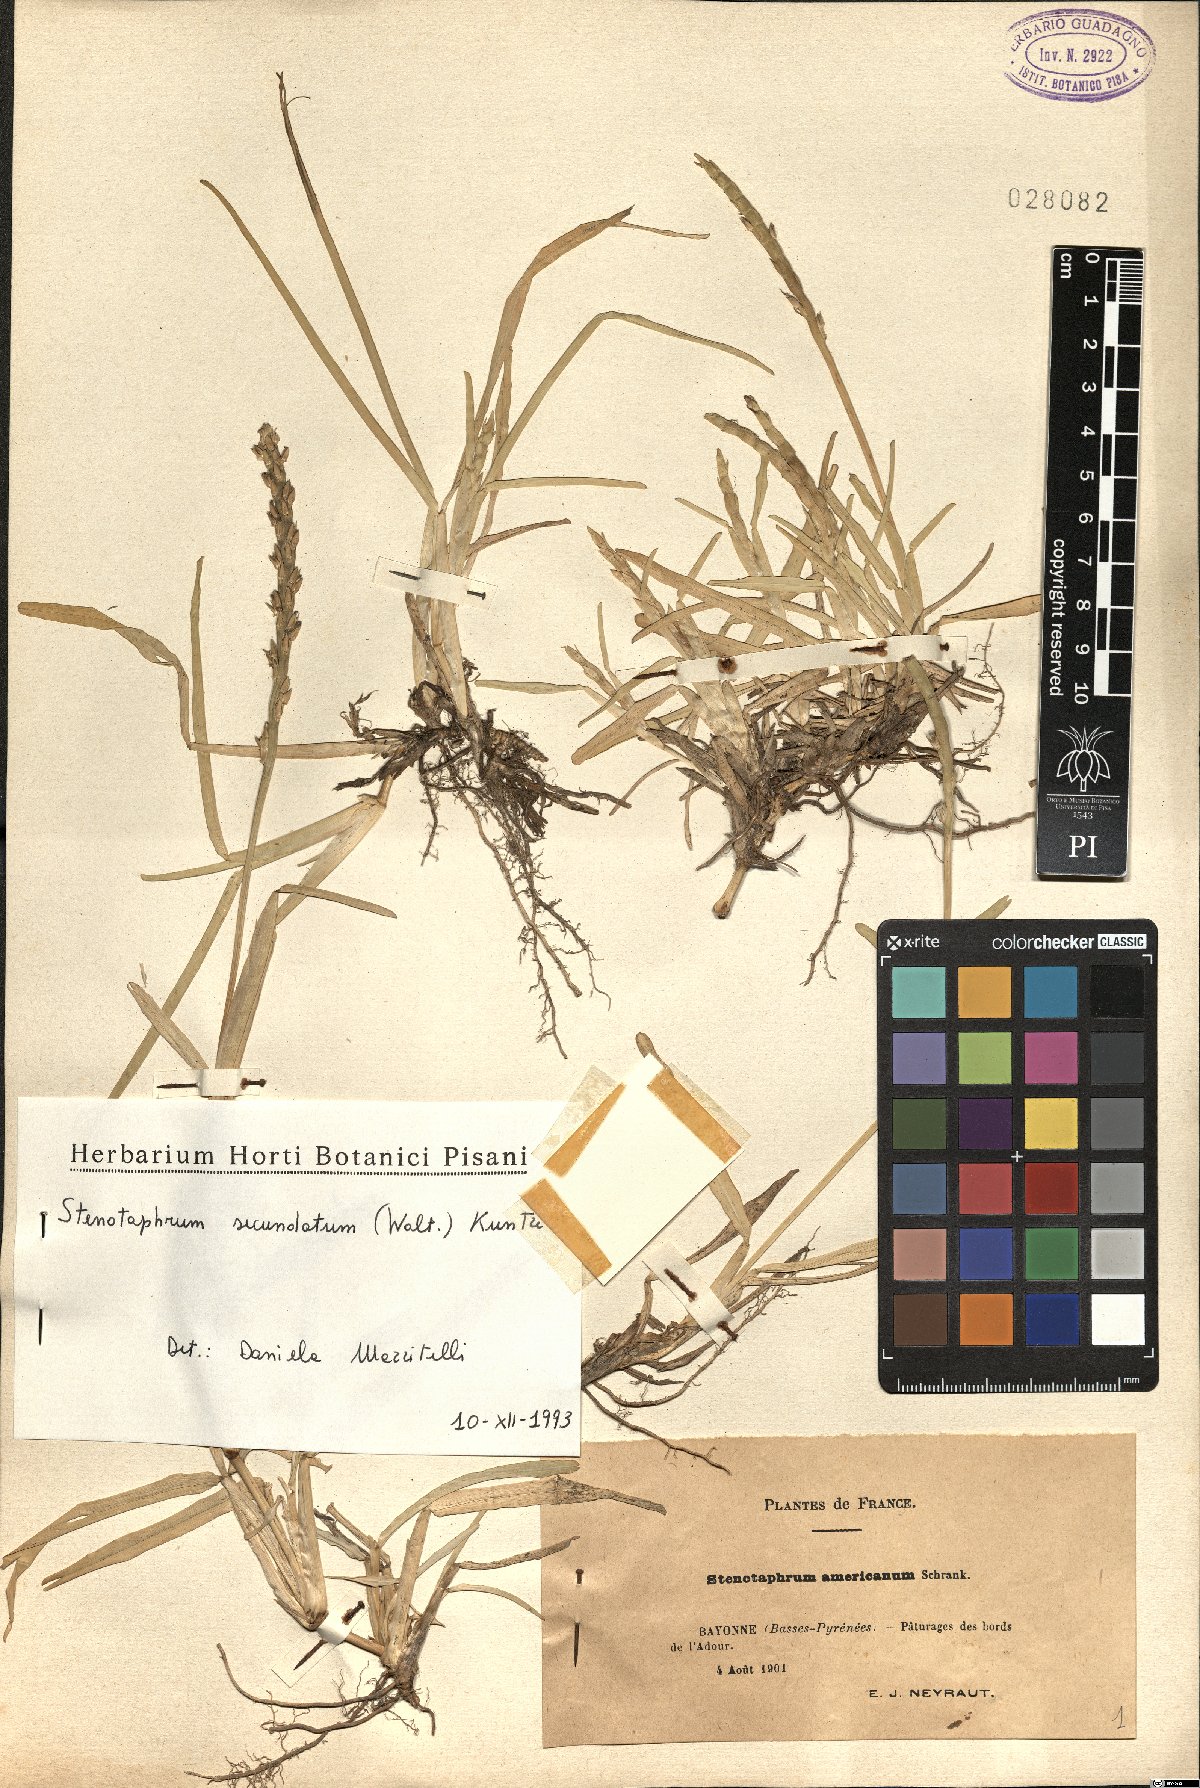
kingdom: Plantae
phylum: Tracheophyta
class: Liliopsida
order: Poales
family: Poaceae
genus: Stenotaphrum
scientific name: Stenotaphrum secundatum
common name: St. augustine grass
